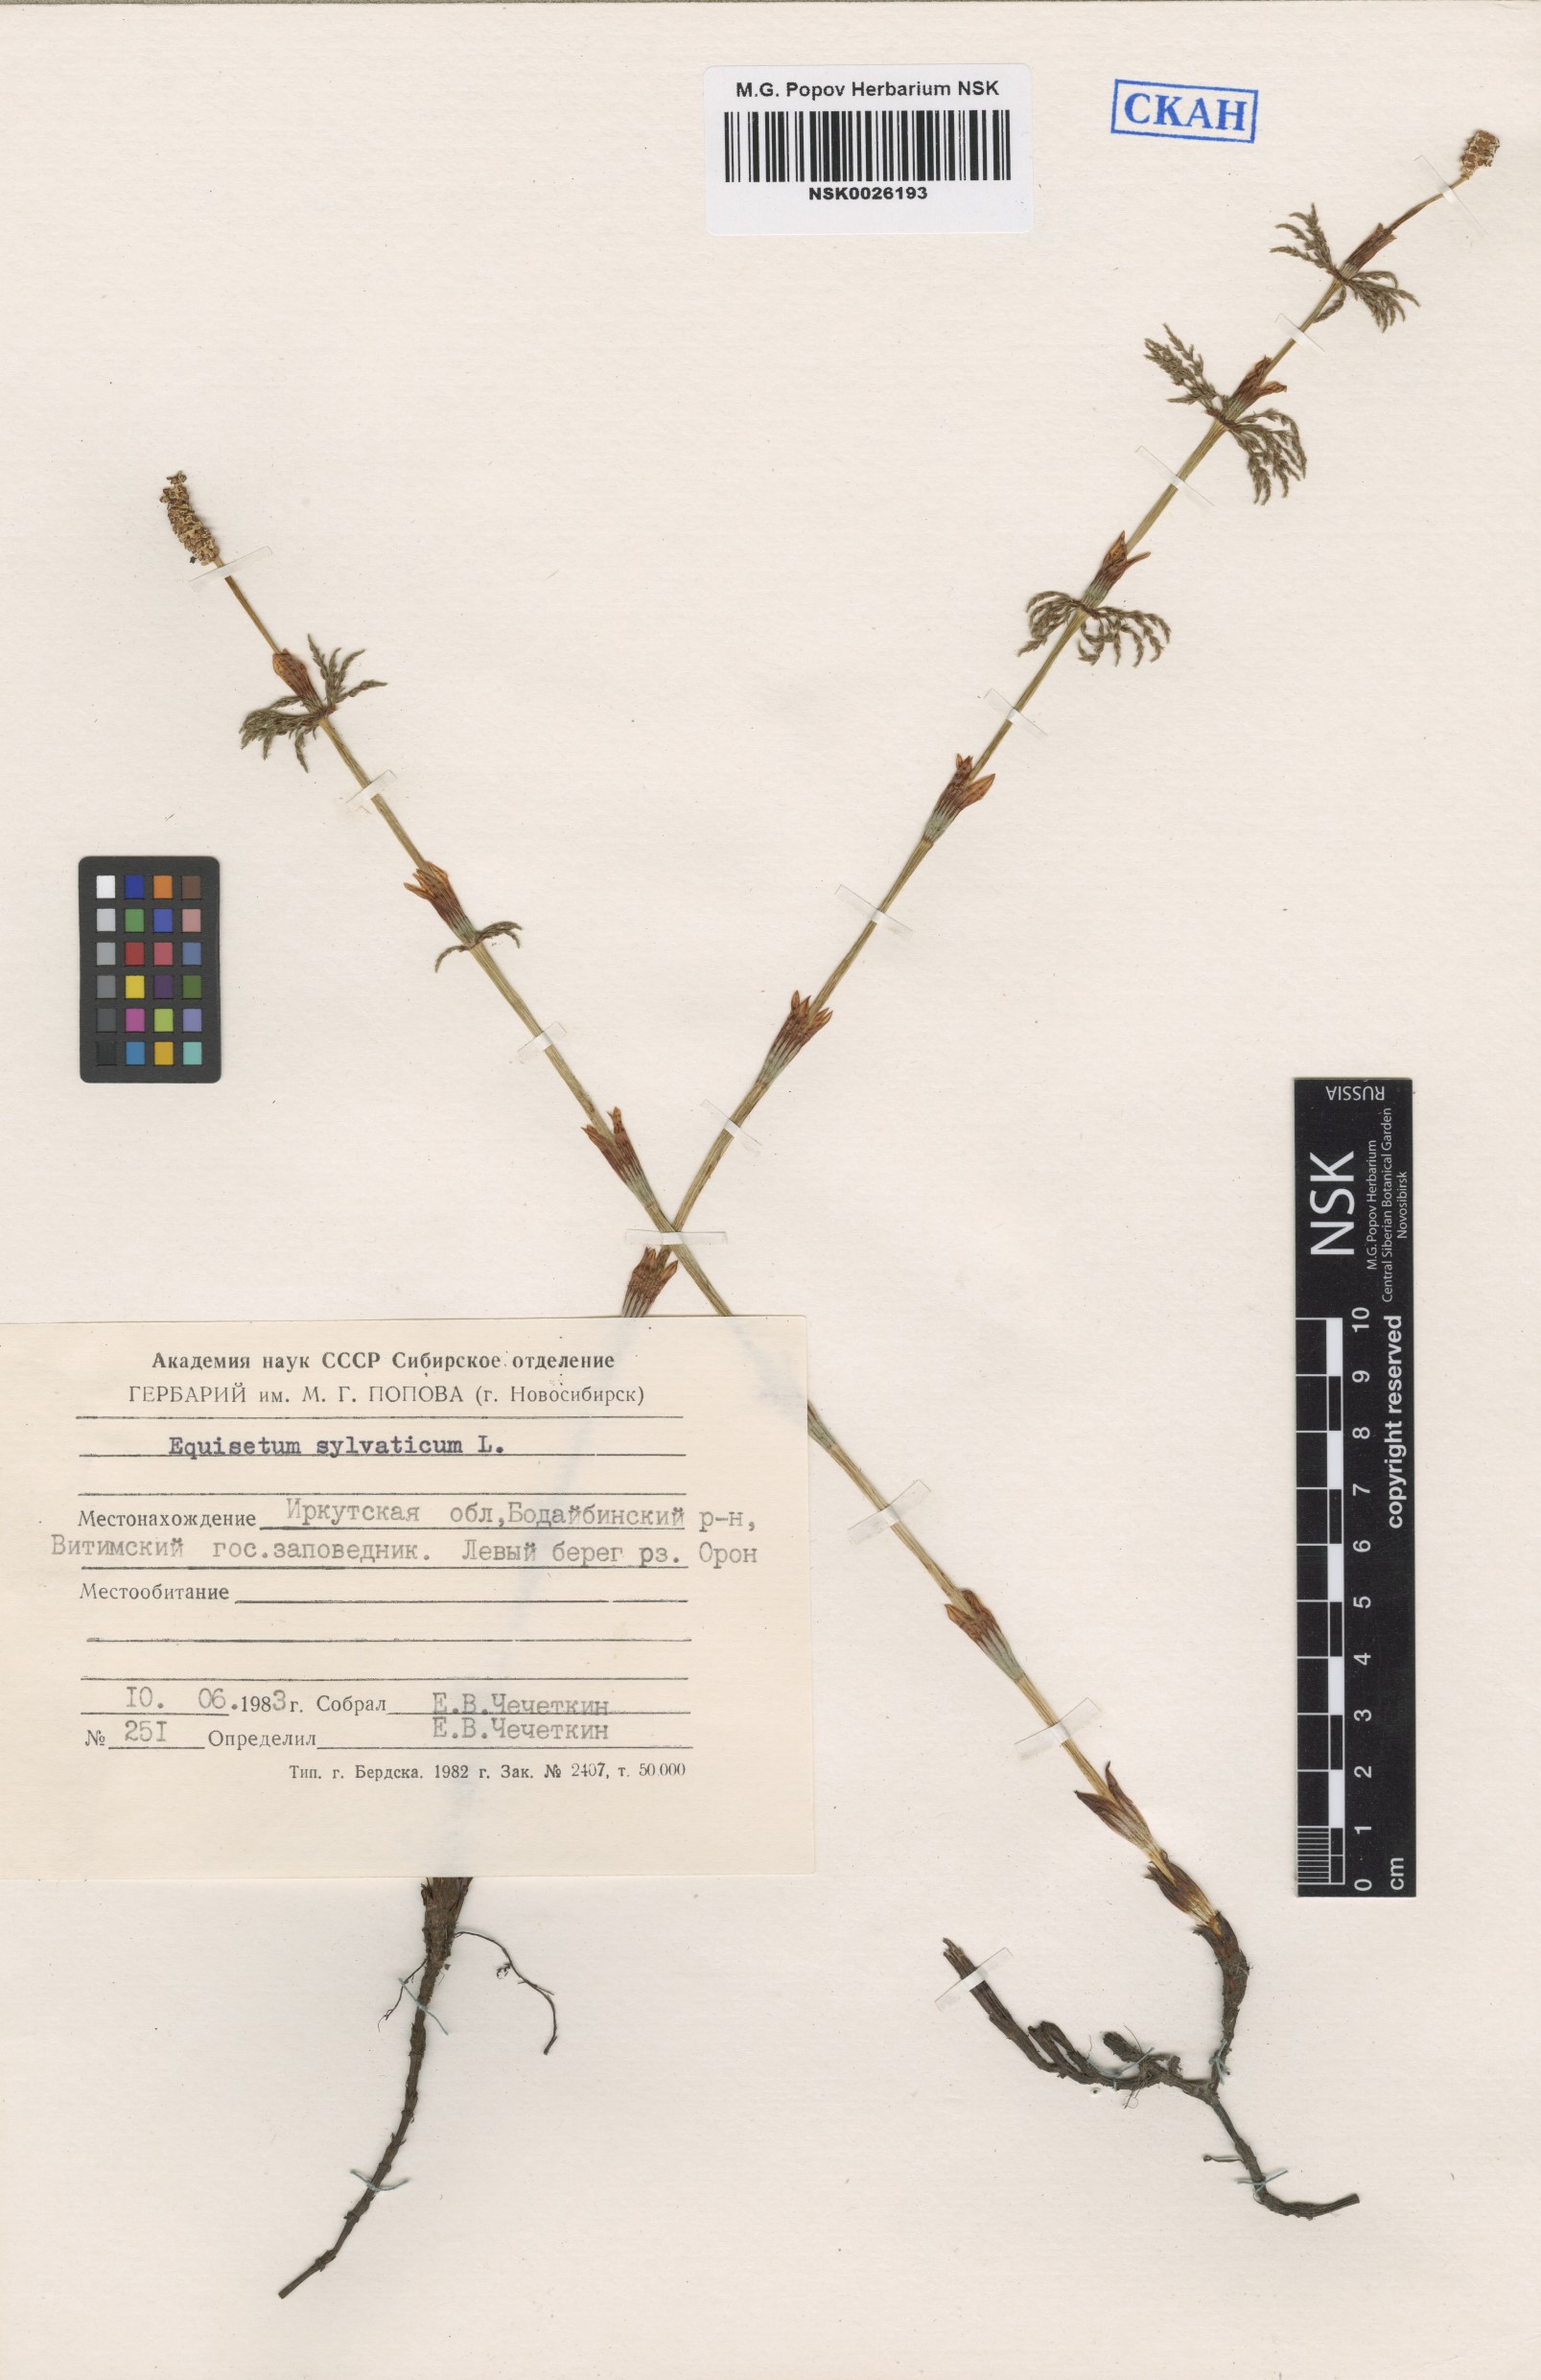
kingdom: Plantae
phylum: Tracheophyta
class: Polypodiopsida
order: Equisetales
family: Equisetaceae
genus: Equisetum
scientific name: Equisetum sylvaticum
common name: Wood horsetail
